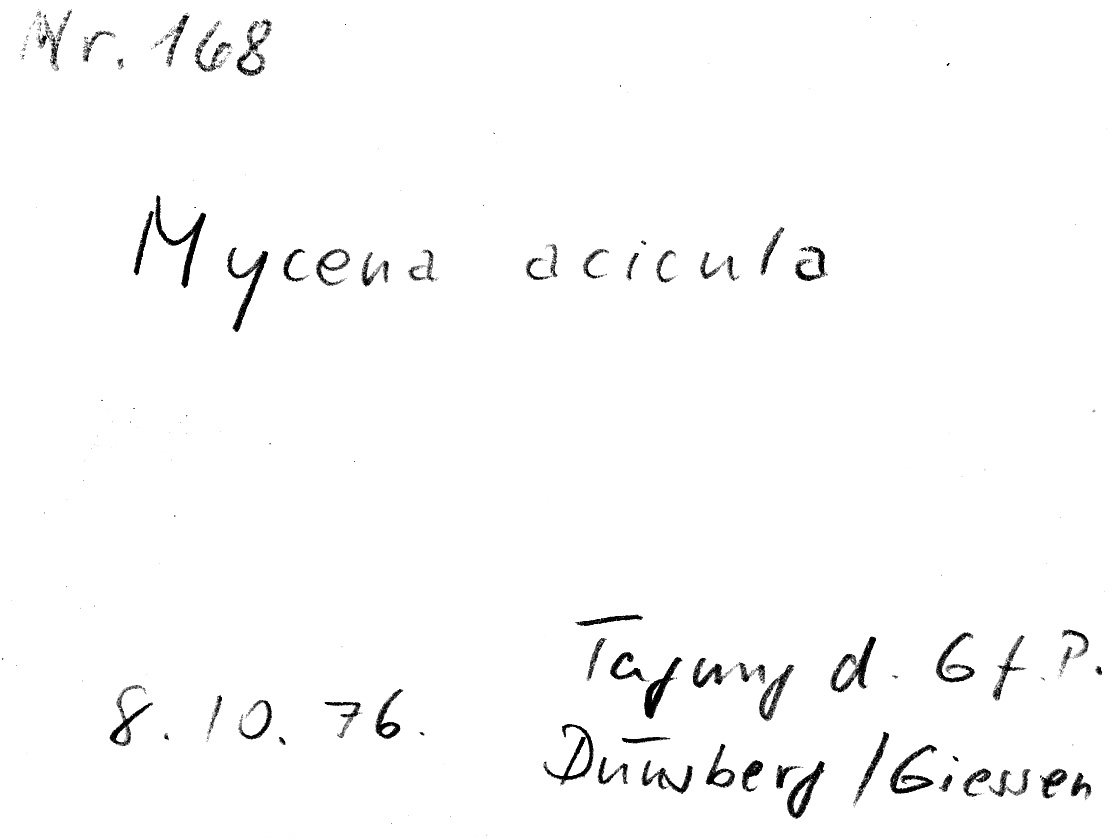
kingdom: Fungi
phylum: Basidiomycota
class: Agaricomycetes
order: Agaricales
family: Mycenaceae
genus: Mycena
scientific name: Mycena acicula
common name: Orange bonnet
